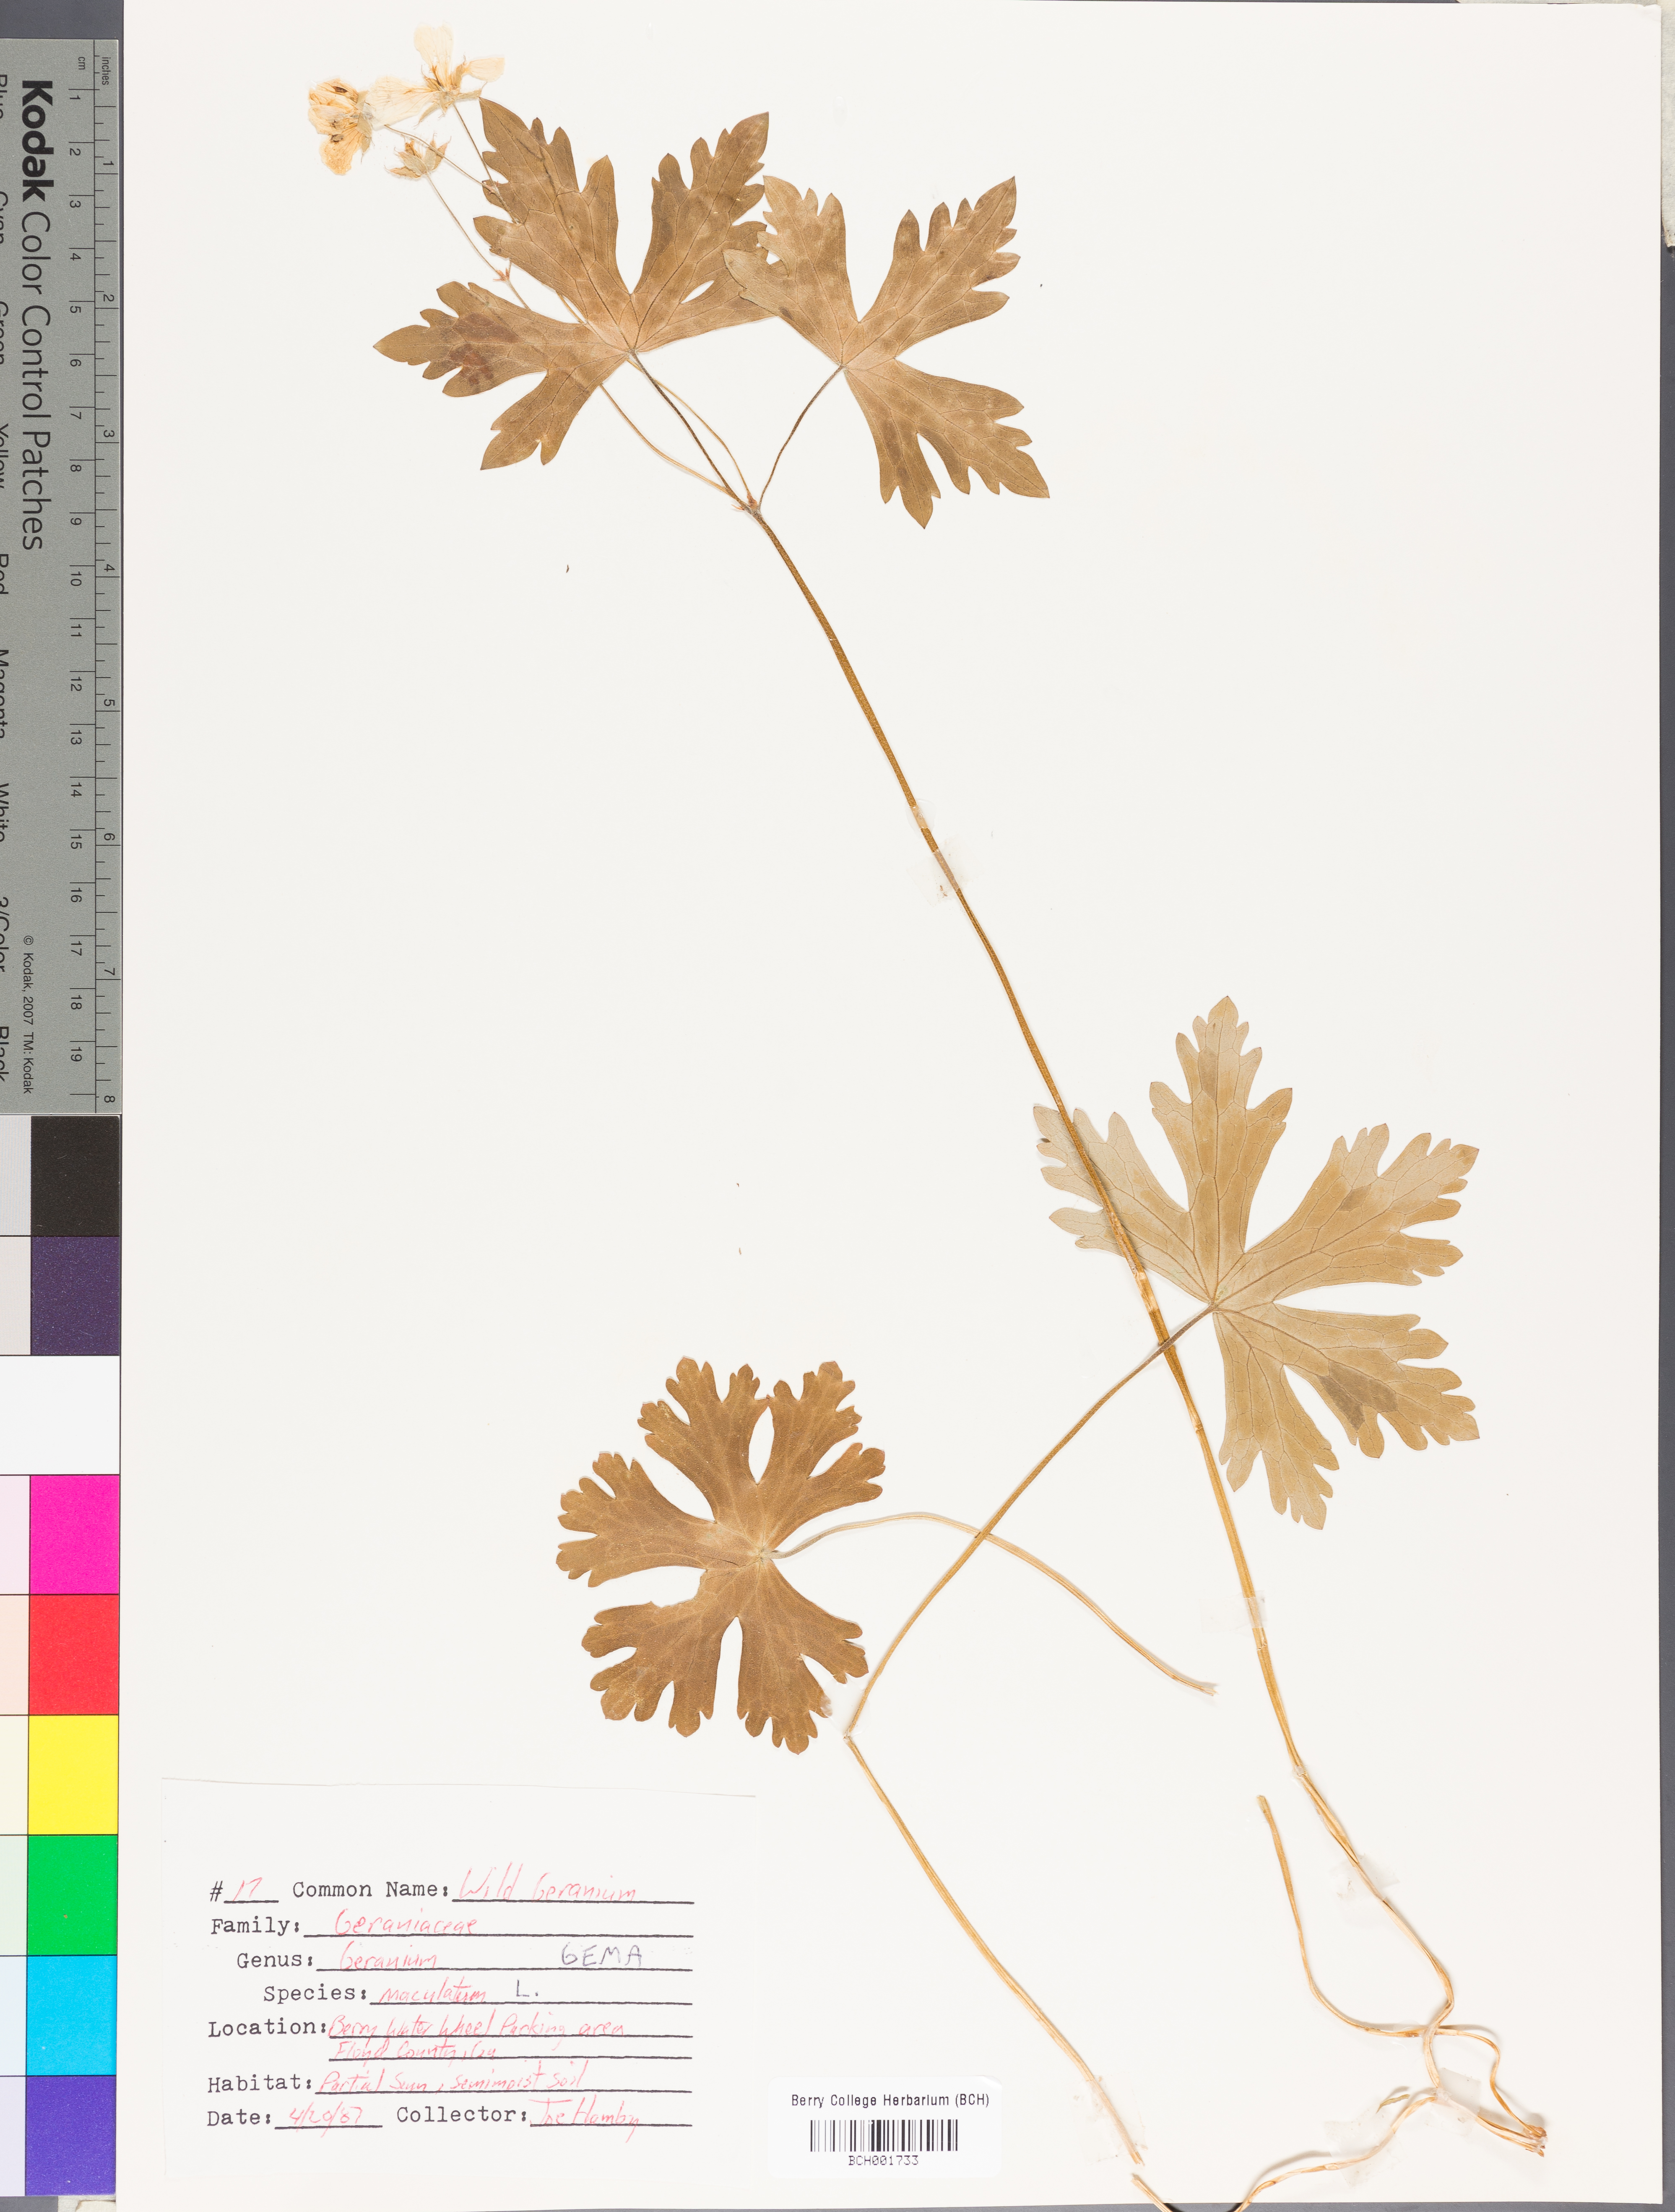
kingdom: Plantae
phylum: Tracheophyta
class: Magnoliopsida
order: Geraniales
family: Geraniaceae
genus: Geranium
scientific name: Geranium maculatum
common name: Spotted geranium
